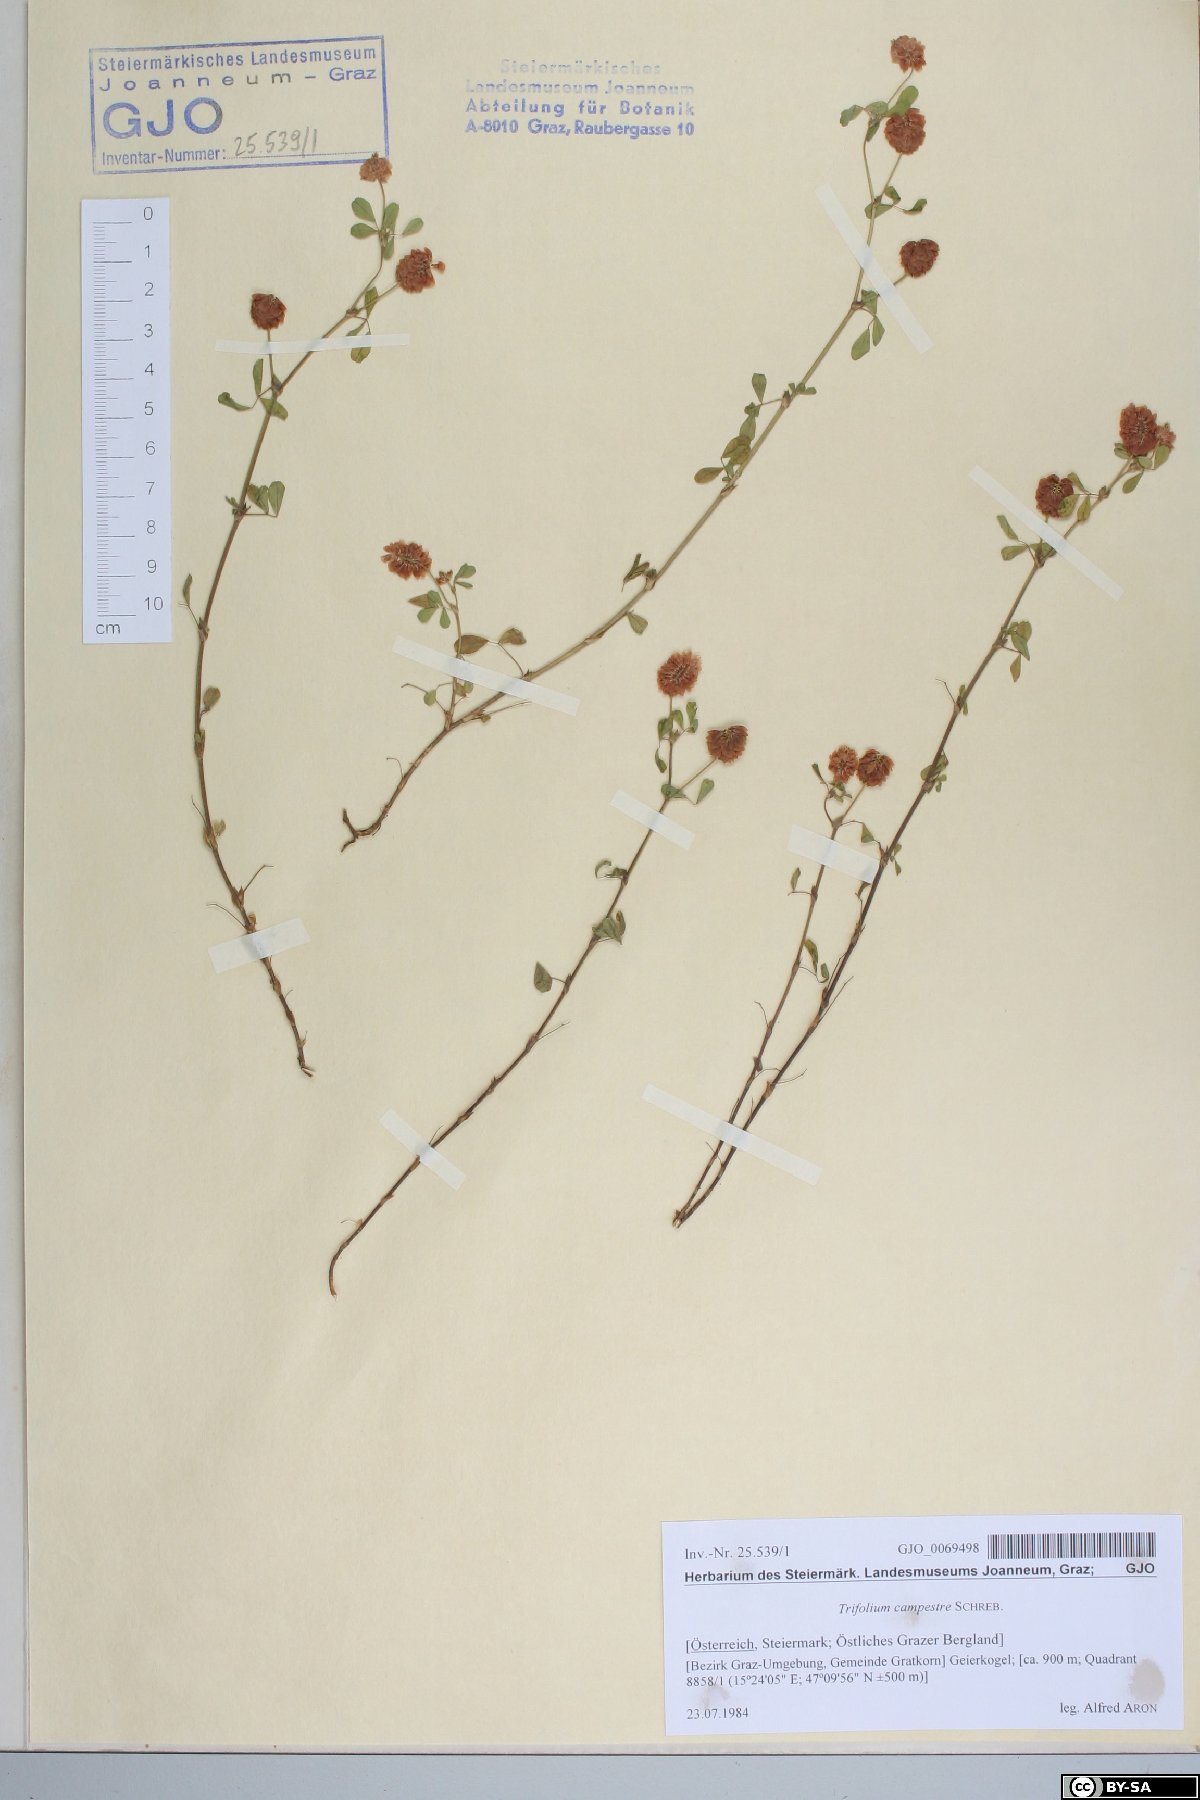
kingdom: Plantae
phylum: Tracheophyta
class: Magnoliopsida
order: Fabales
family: Fabaceae
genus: Trifolium
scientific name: Trifolium campestre
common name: Field clover
